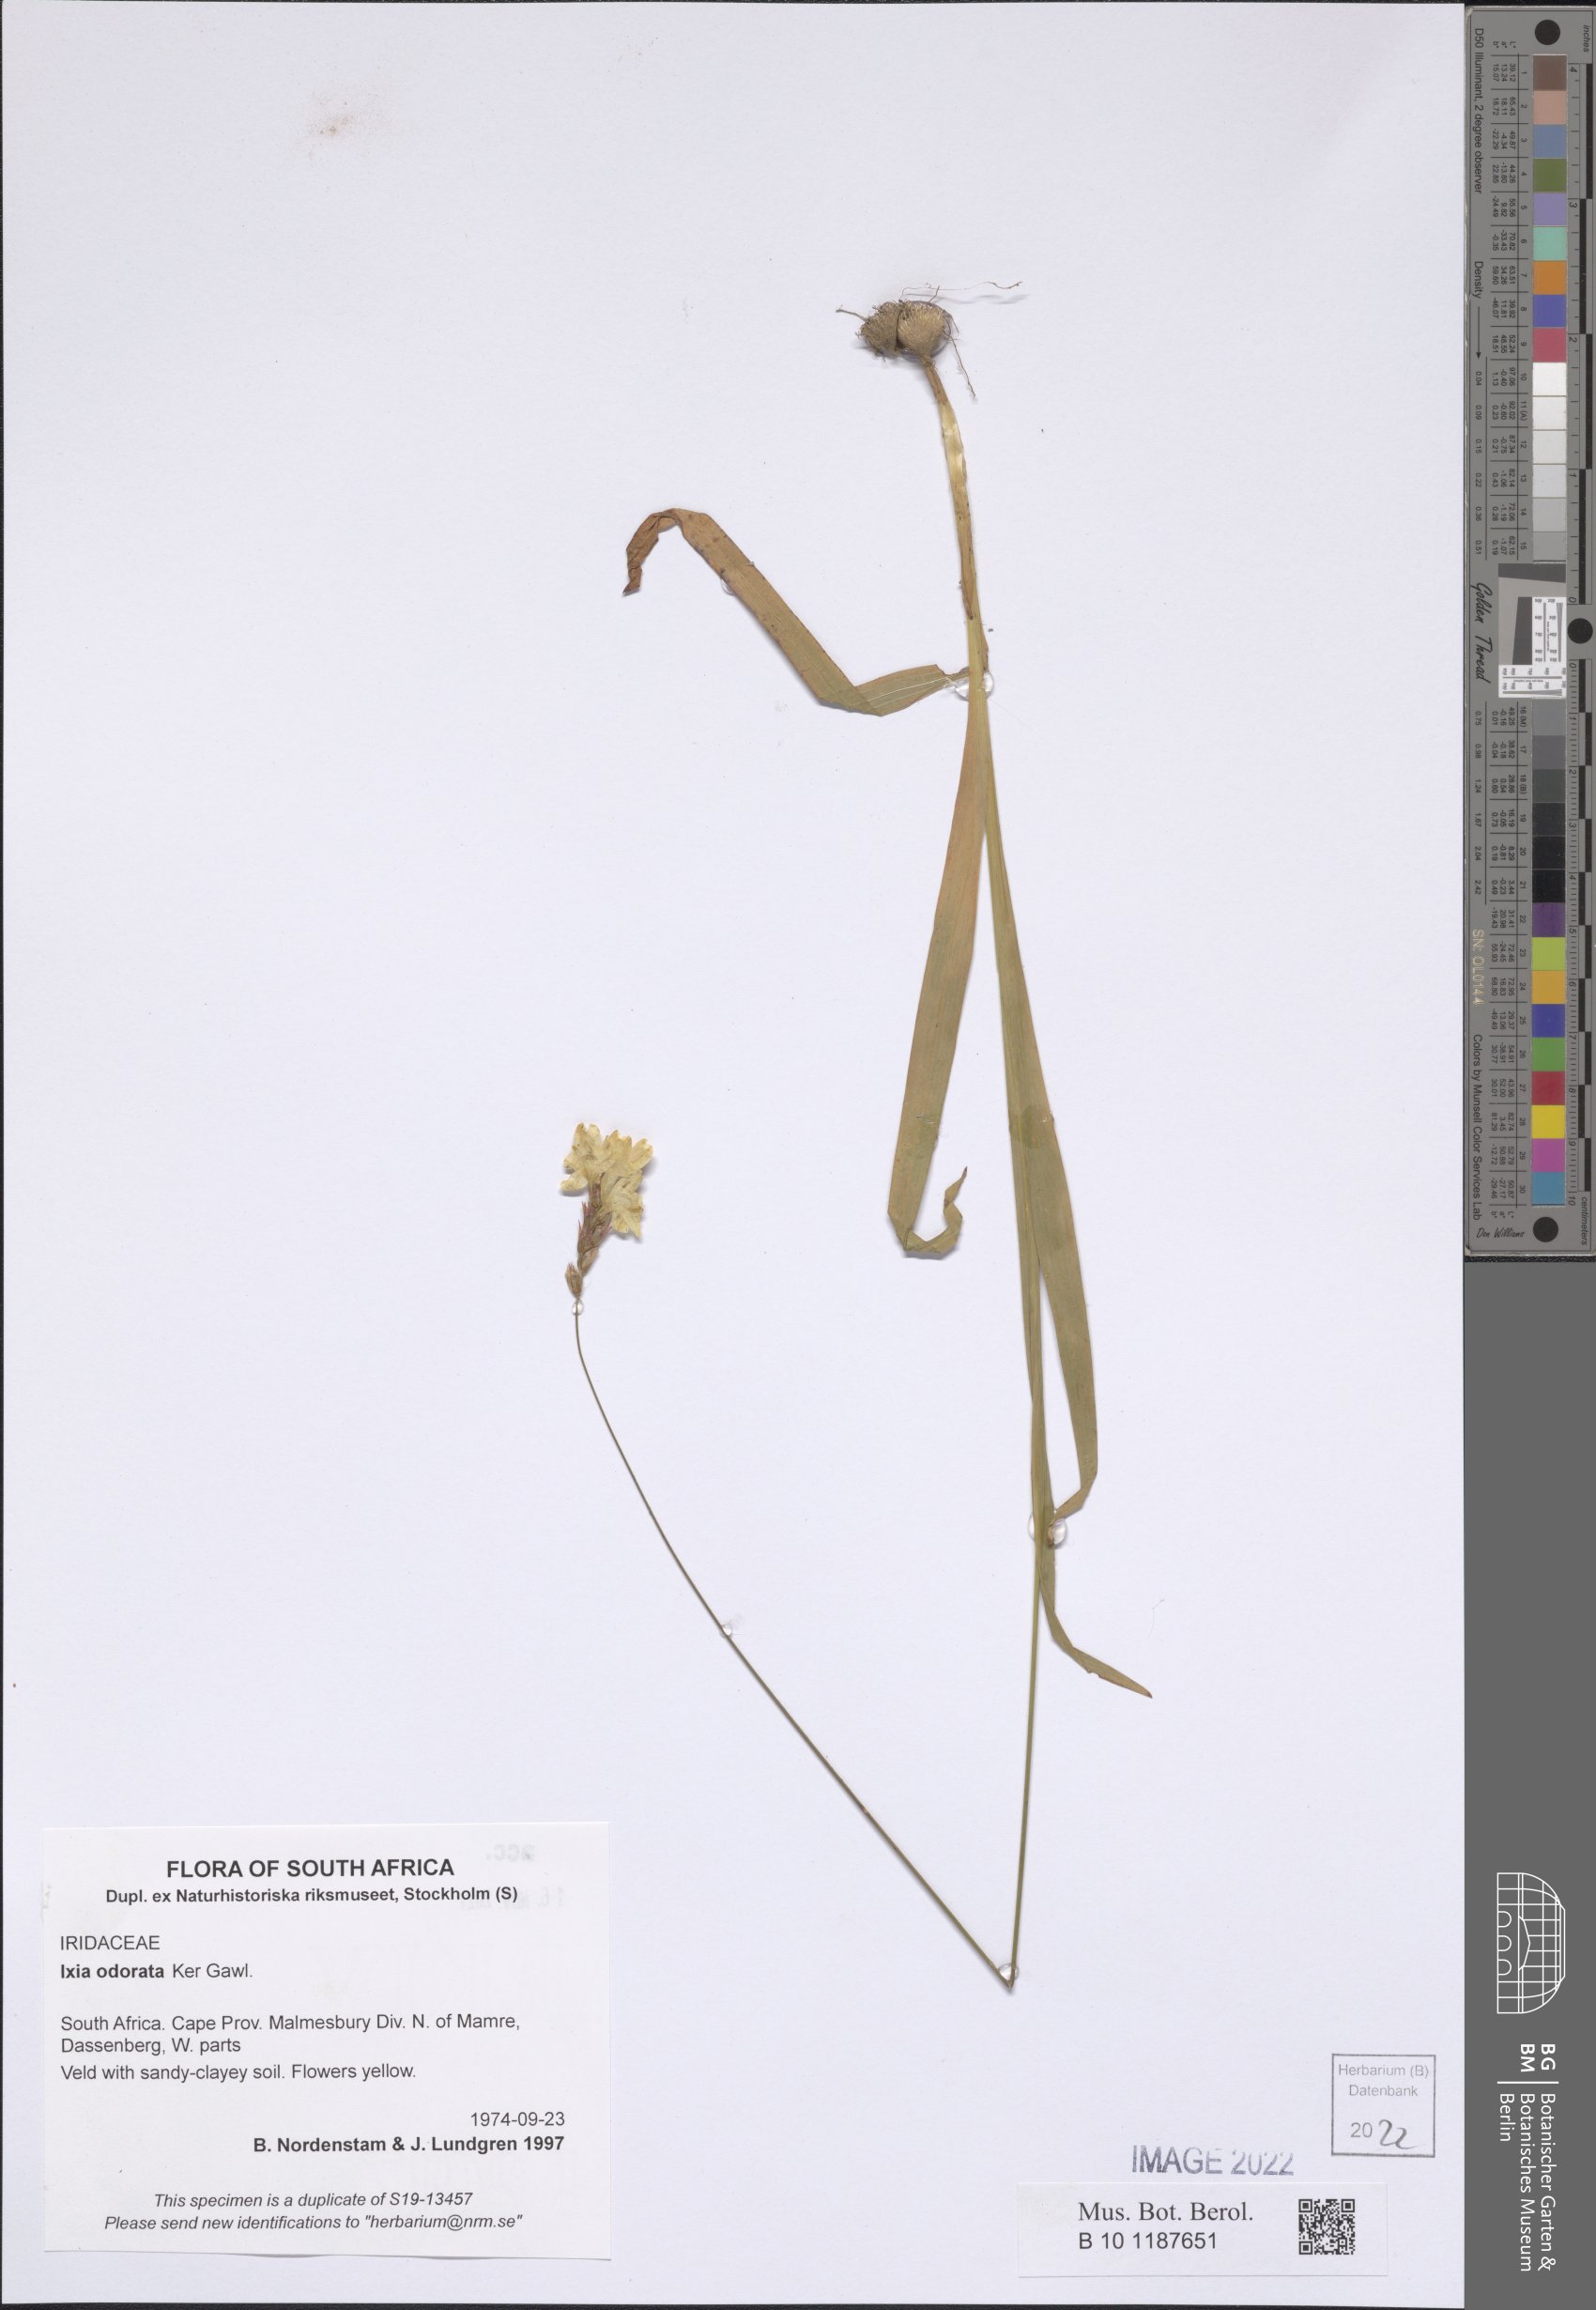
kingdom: Plantae
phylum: Tracheophyta
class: Liliopsida
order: Asparagales
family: Iridaceae
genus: Ixia
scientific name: Ixia odorata
